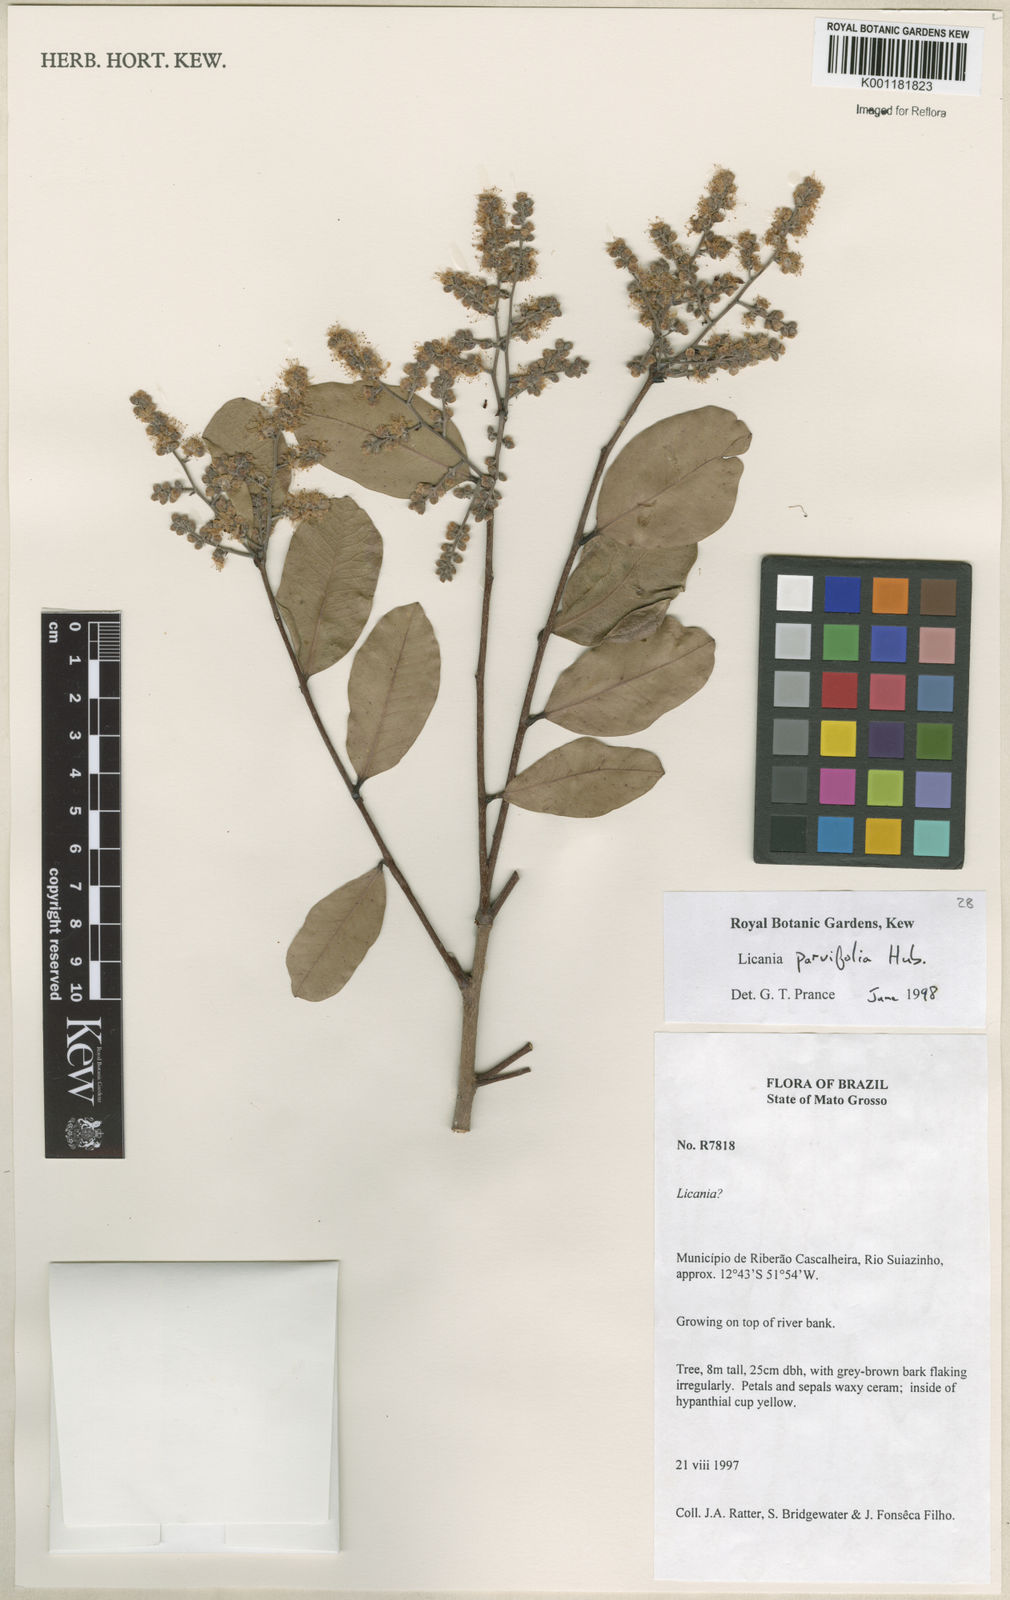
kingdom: Plantae
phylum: Tracheophyta
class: Magnoliopsida
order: Malpighiales
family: Chrysobalanaceae
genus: Licania
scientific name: Licania parvifolia
